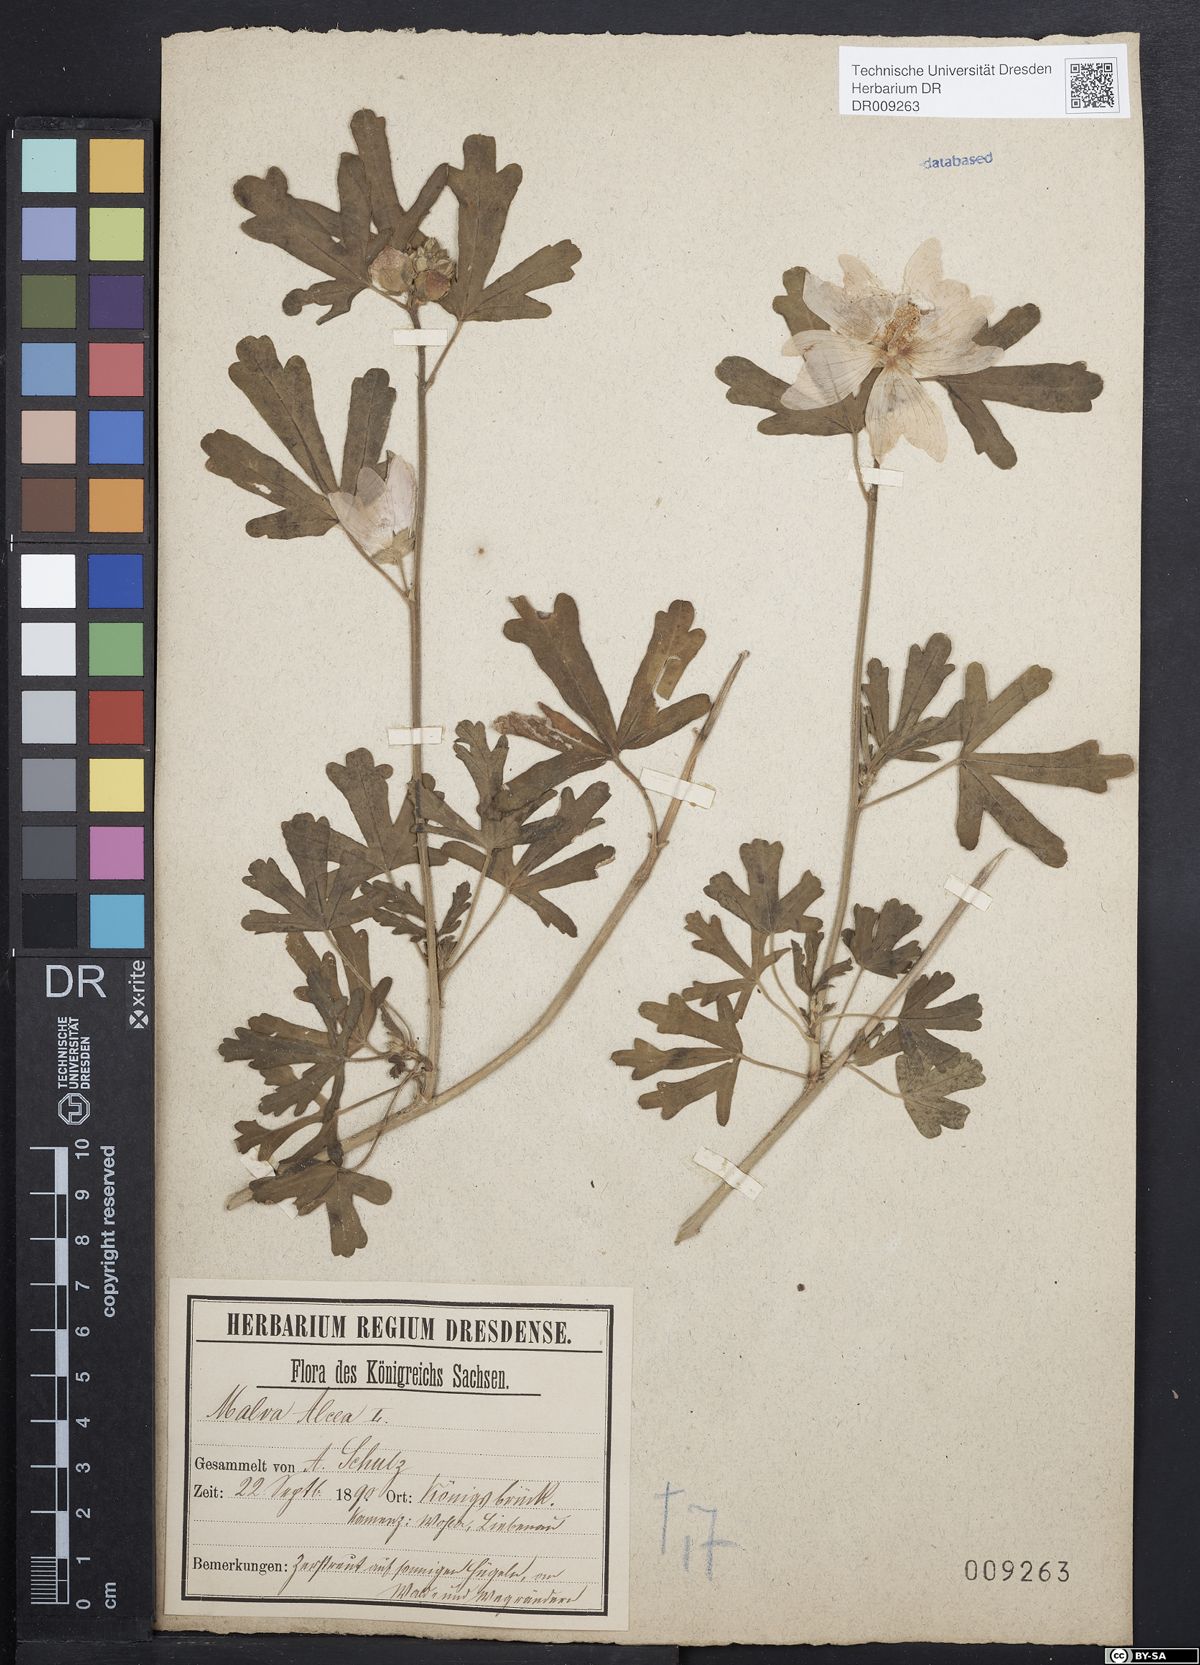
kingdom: Plantae
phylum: Tracheophyta
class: Magnoliopsida
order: Malvales
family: Malvaceae
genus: Malva
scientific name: Malva alcea
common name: Greater musk-mallow
